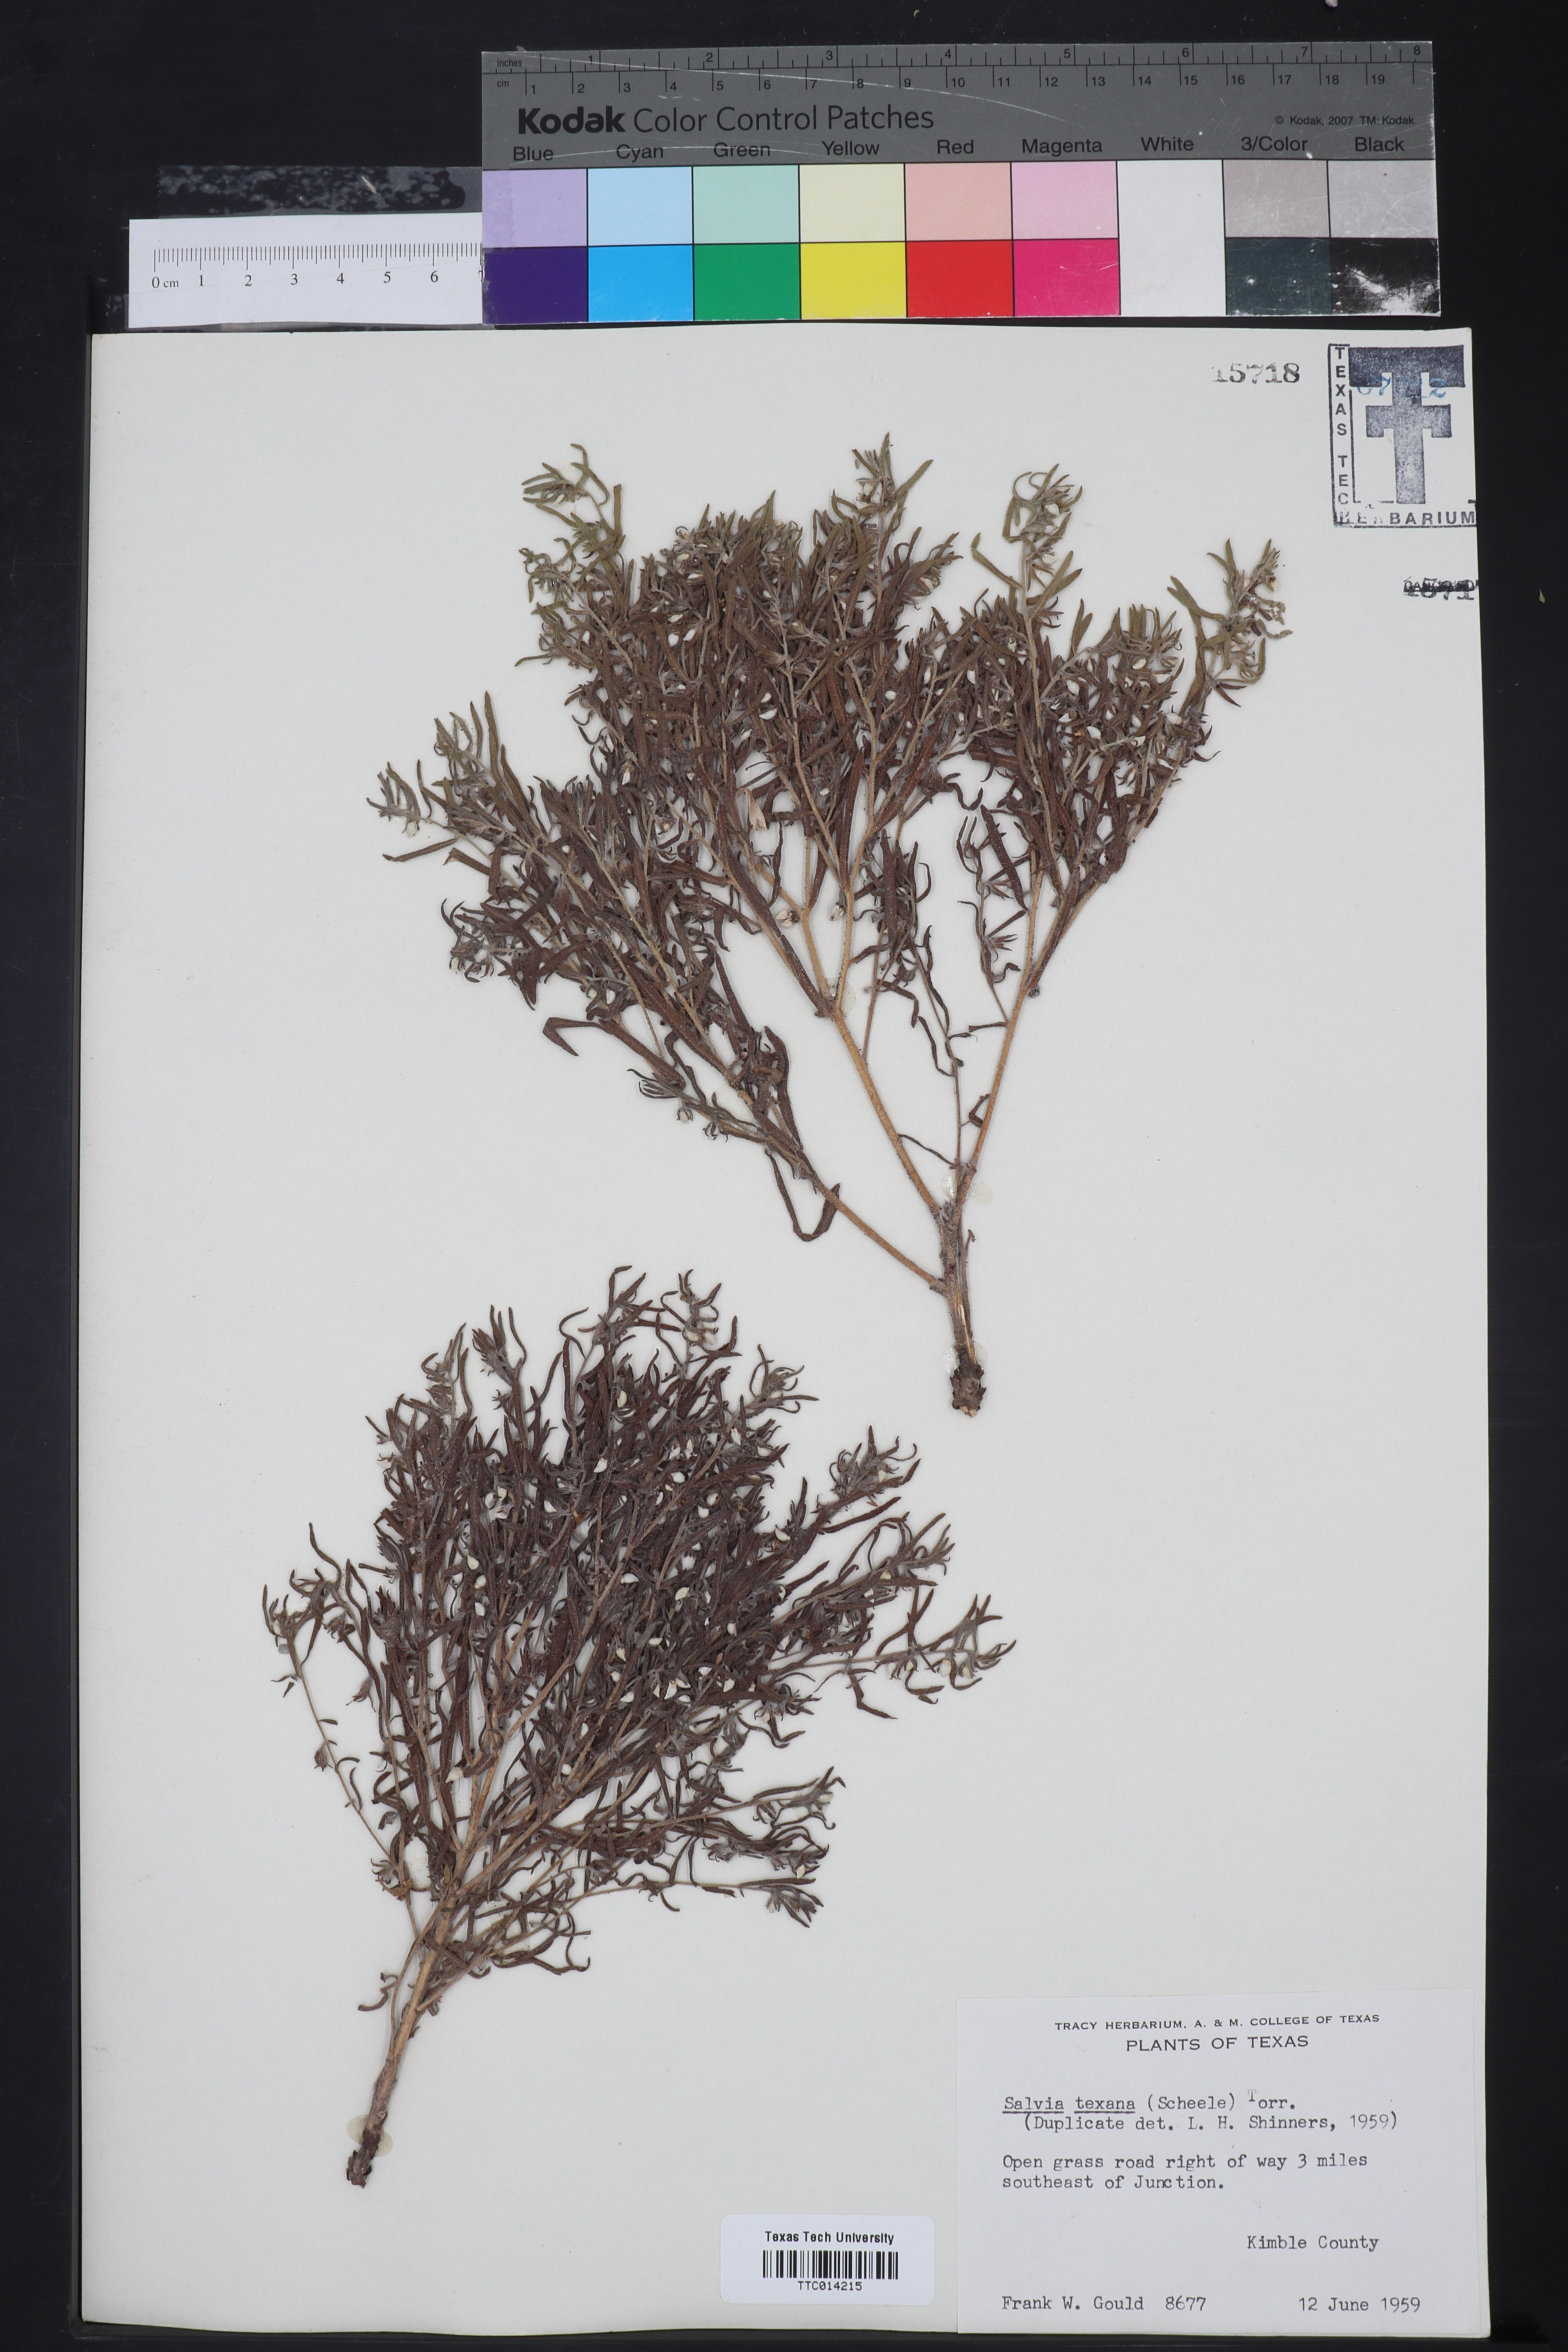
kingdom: Plantae
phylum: Tracheophyta
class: Magnoliopsida
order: Lamiales
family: Lamiaceae
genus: Salvia
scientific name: Salvia texana
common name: Texas sage
